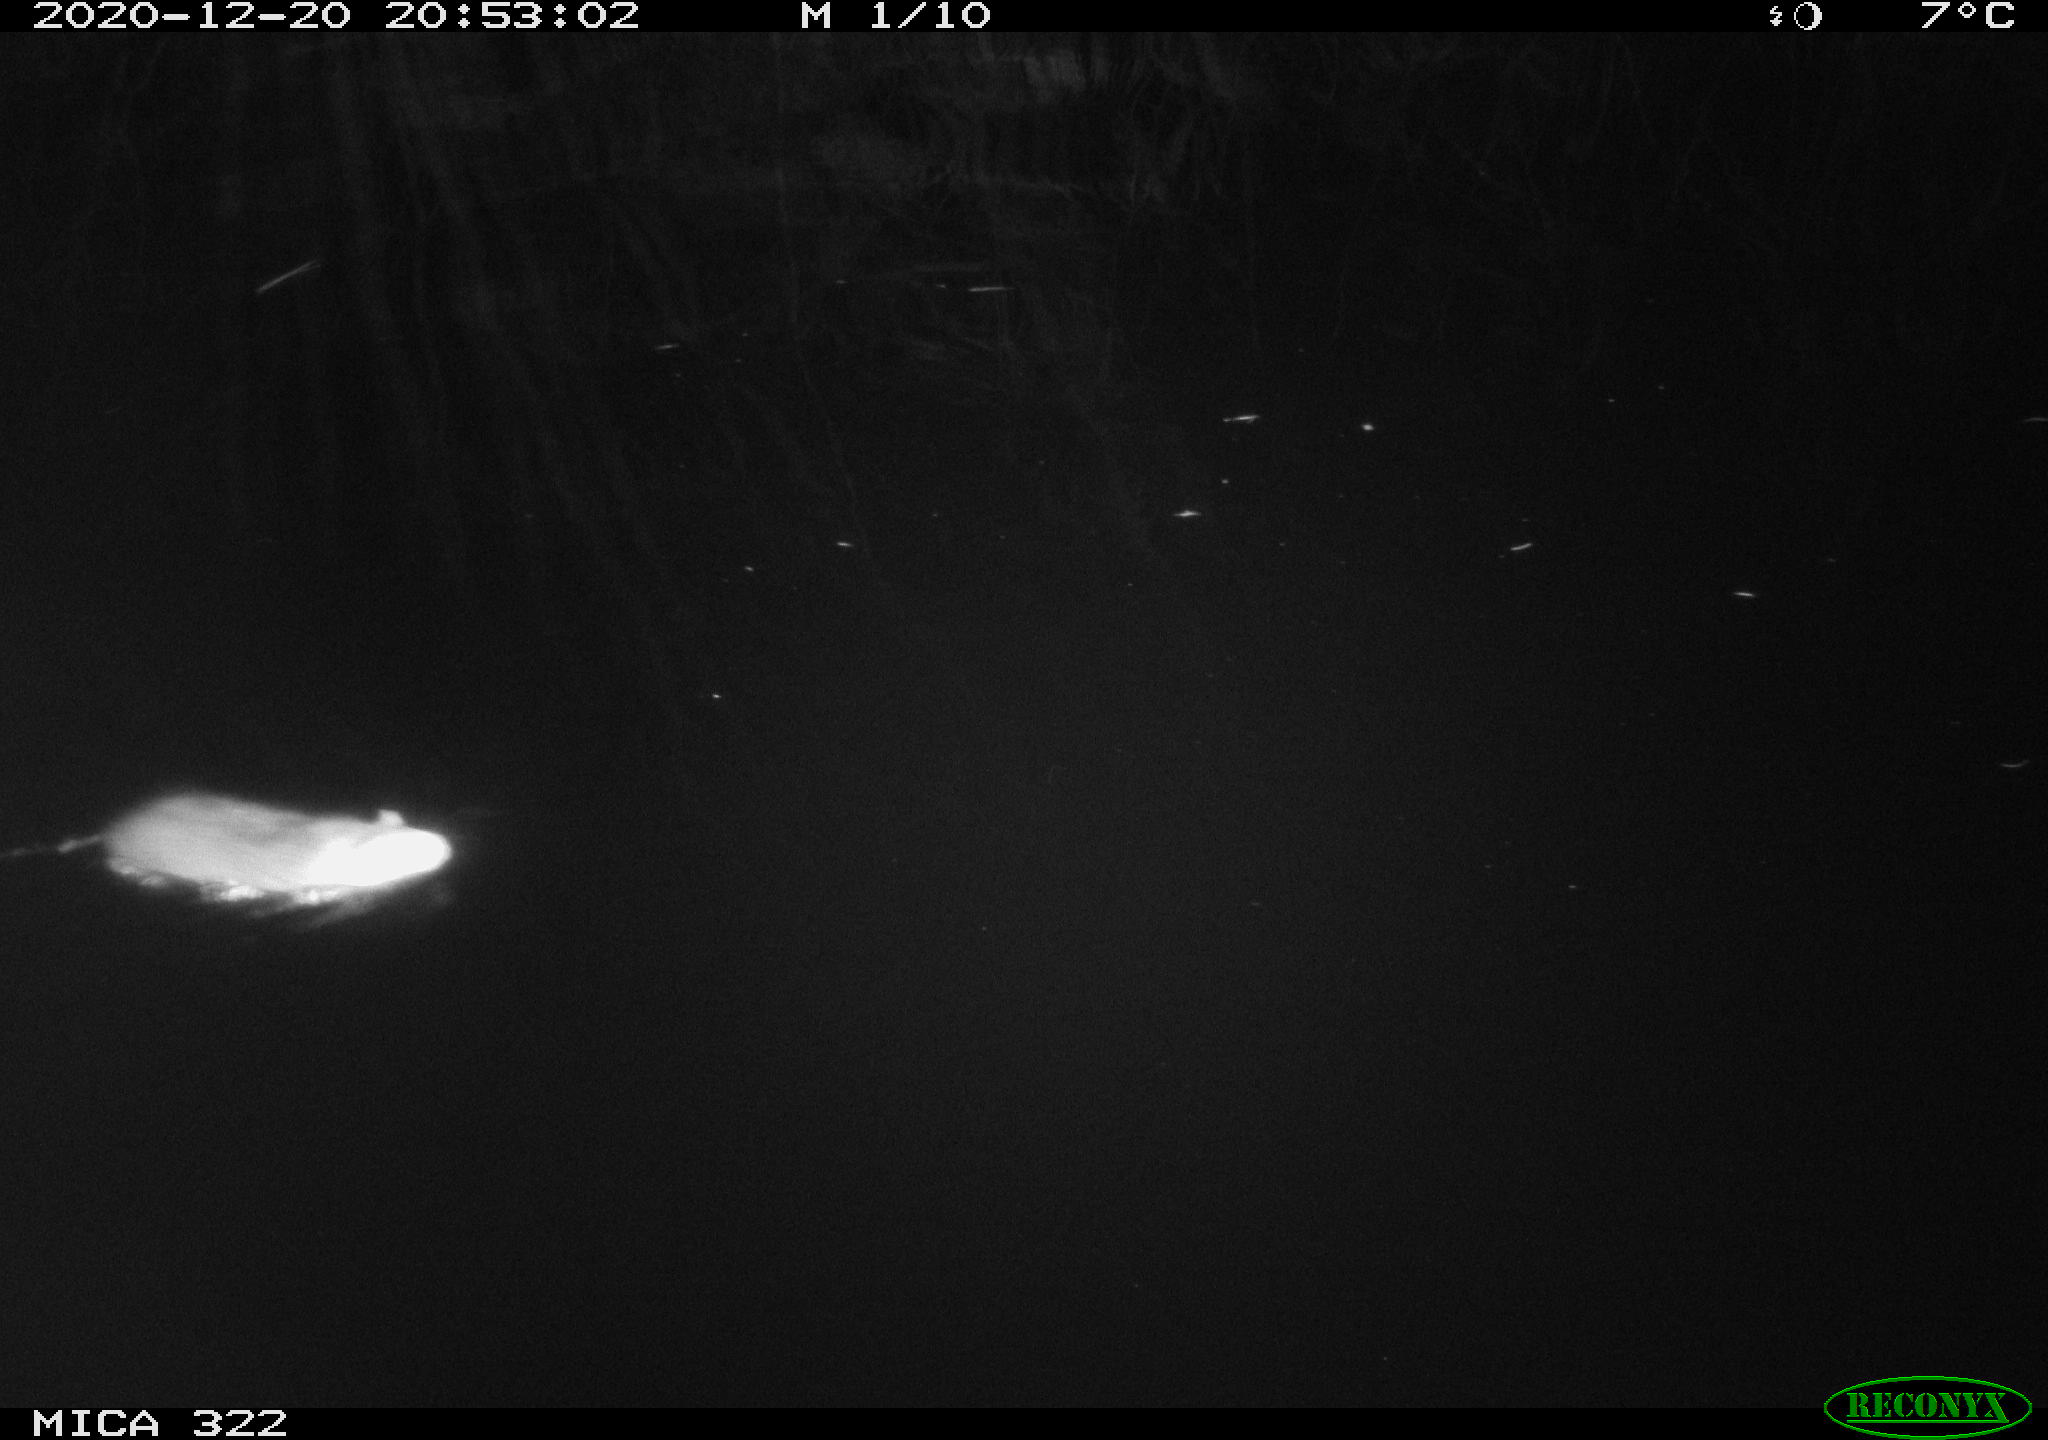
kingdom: Animalia
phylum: Chordata
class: Mammalia
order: Rodentia
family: Muridae
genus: Rattus
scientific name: Rattus norvegicus
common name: Brown rat
